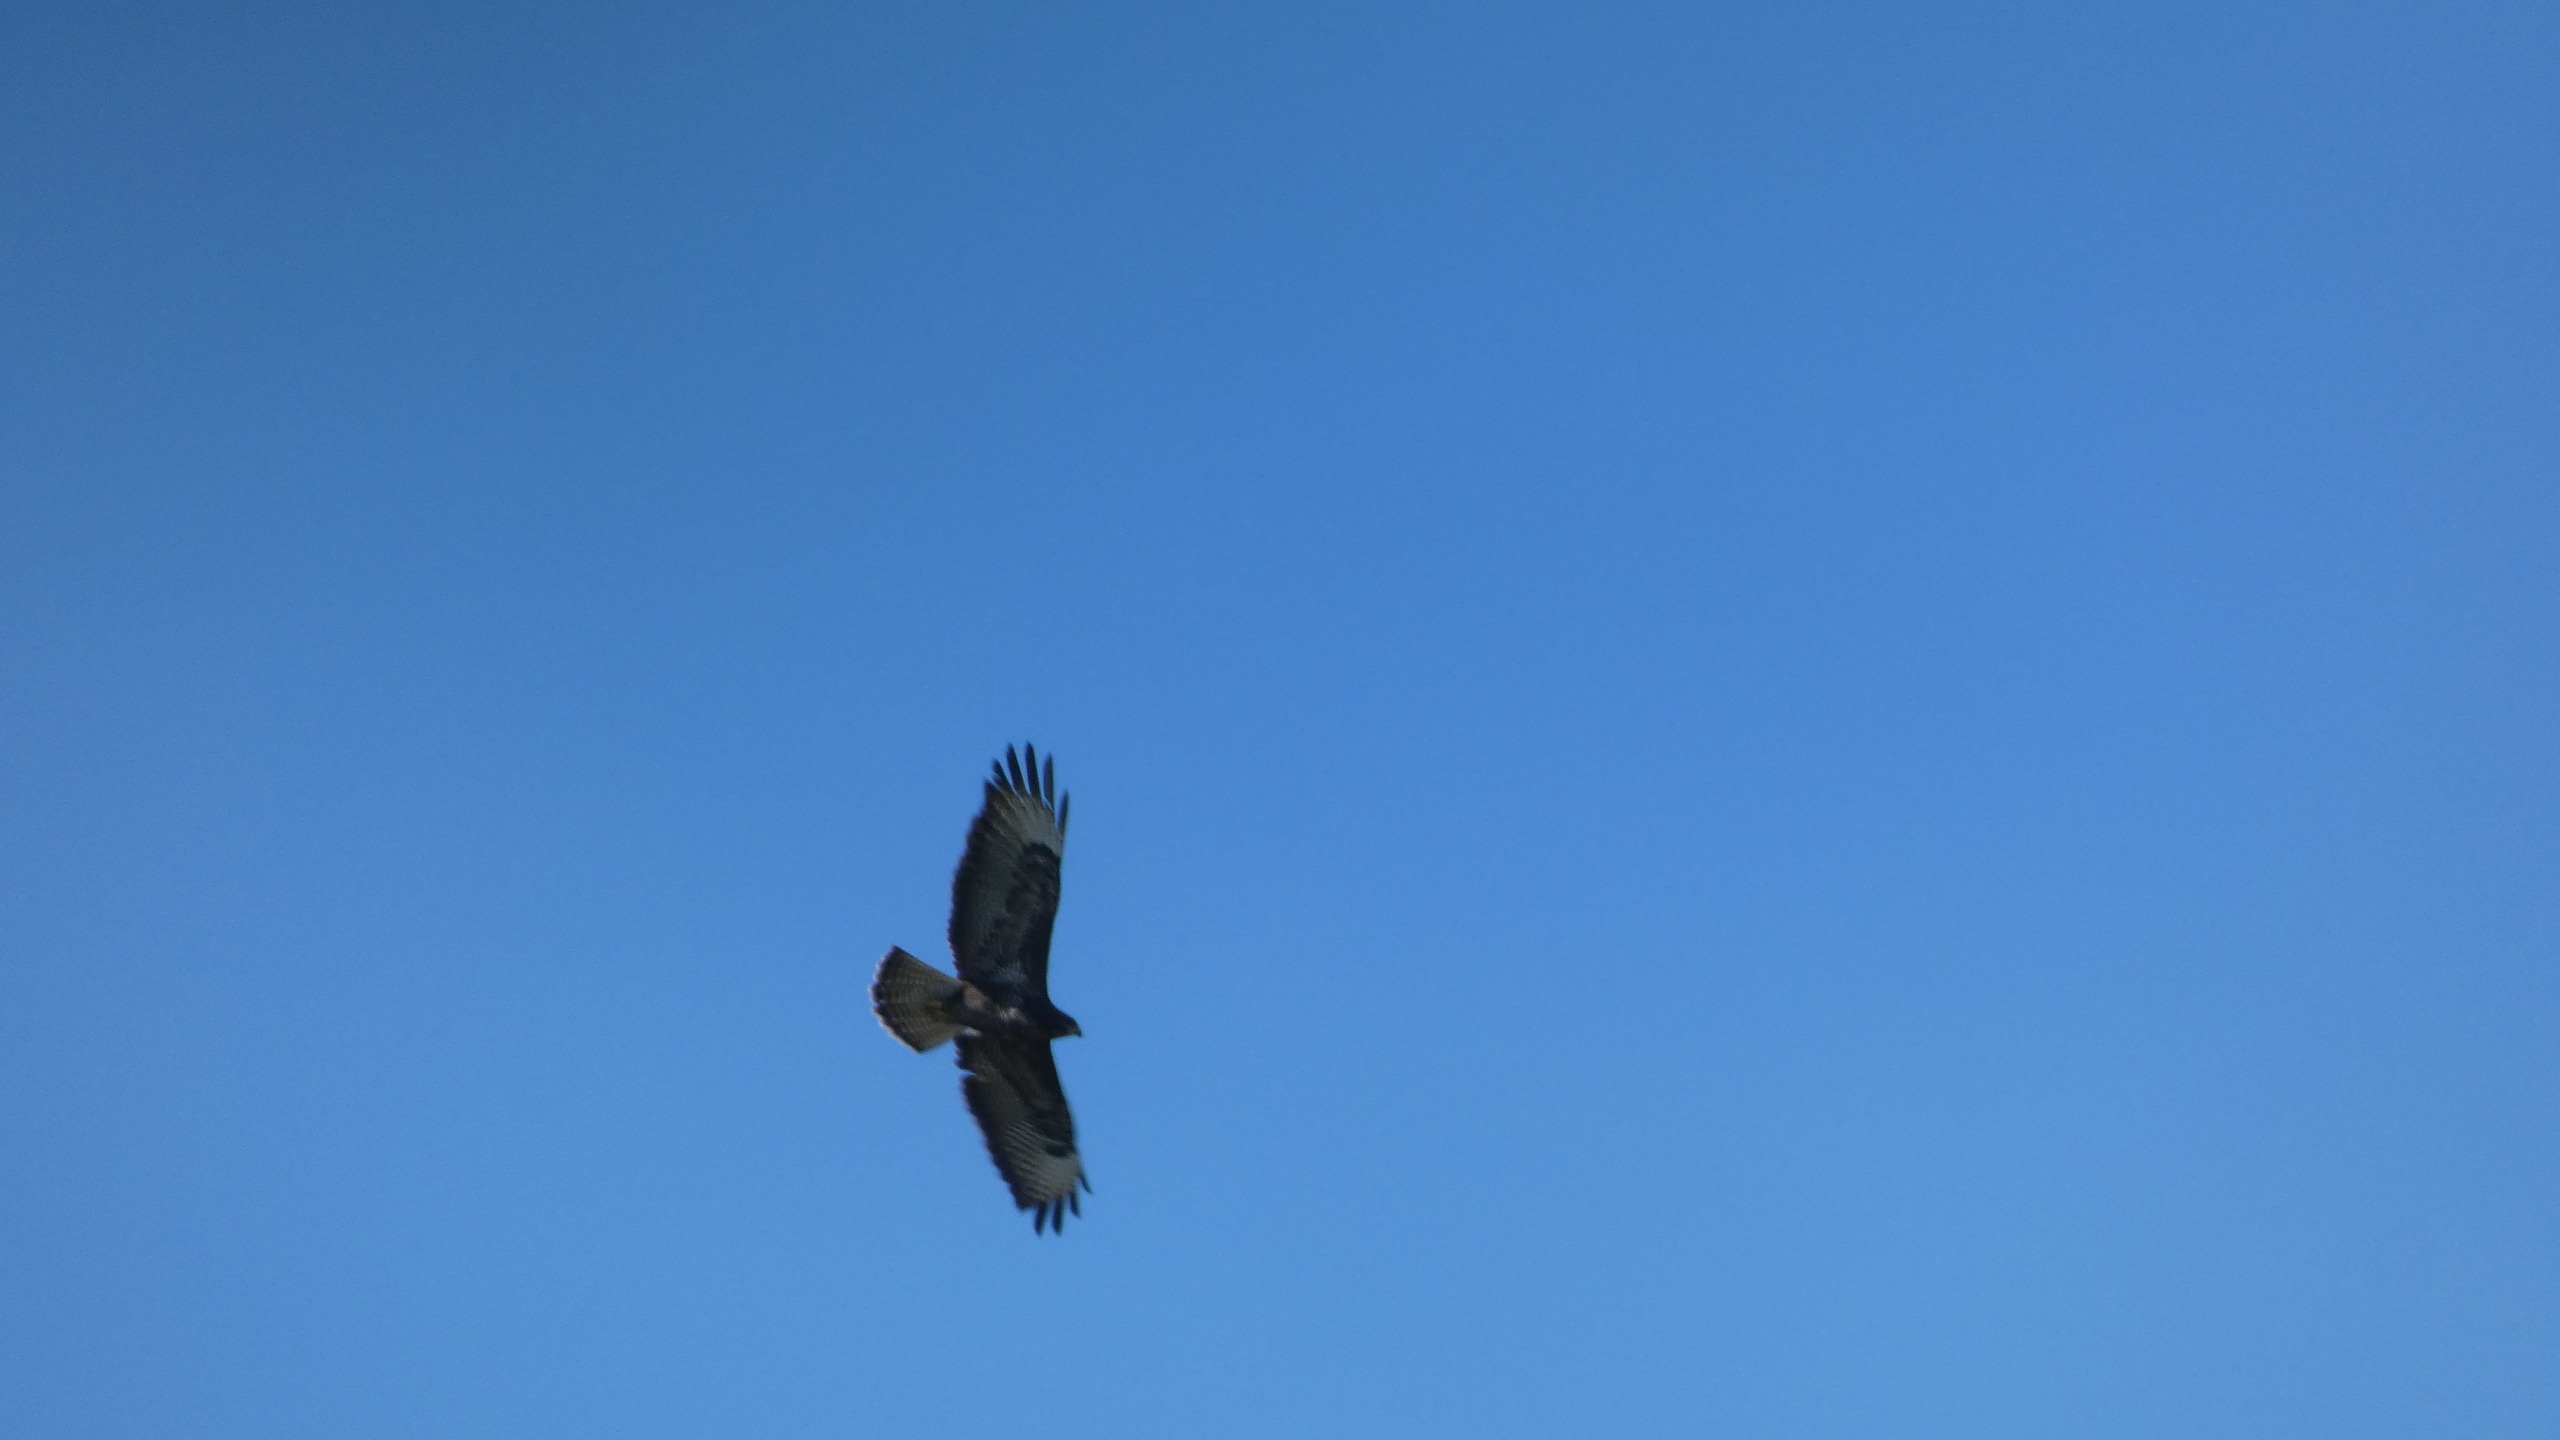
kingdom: Animalia
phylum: Chordata
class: Aves
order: Accipitriformes
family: Accipitridae
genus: Buteo
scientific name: Buteo buteo
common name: Musvåge
